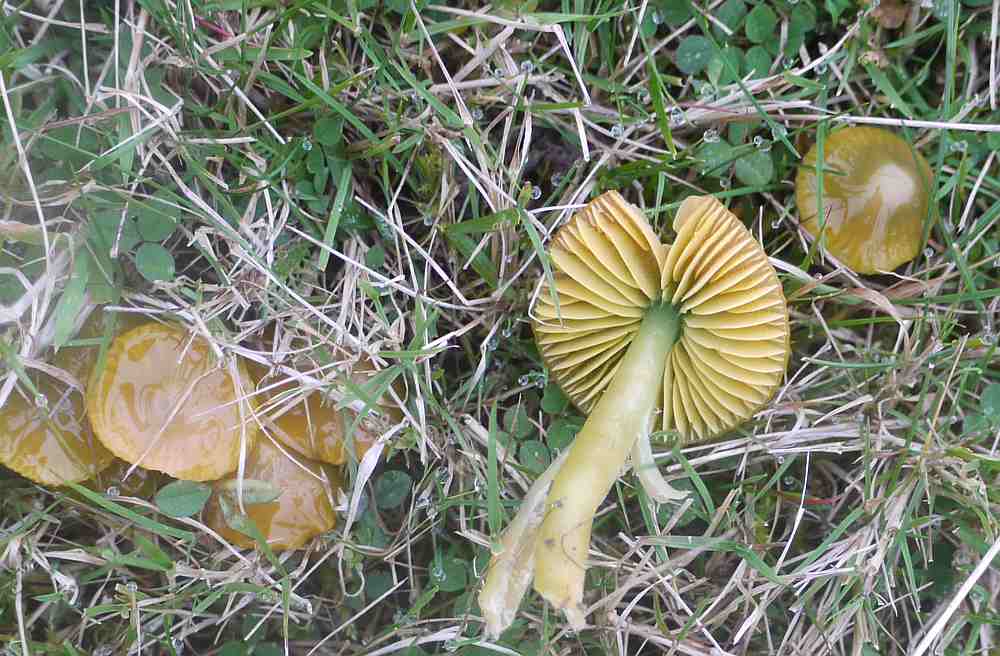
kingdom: Fungi
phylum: Basidiomycota
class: Agaricomycetes
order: Agaricales
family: Hygrophoraceae
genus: Gliophorus
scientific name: Gliophorus psittacinus
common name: papegøje-vokshat
